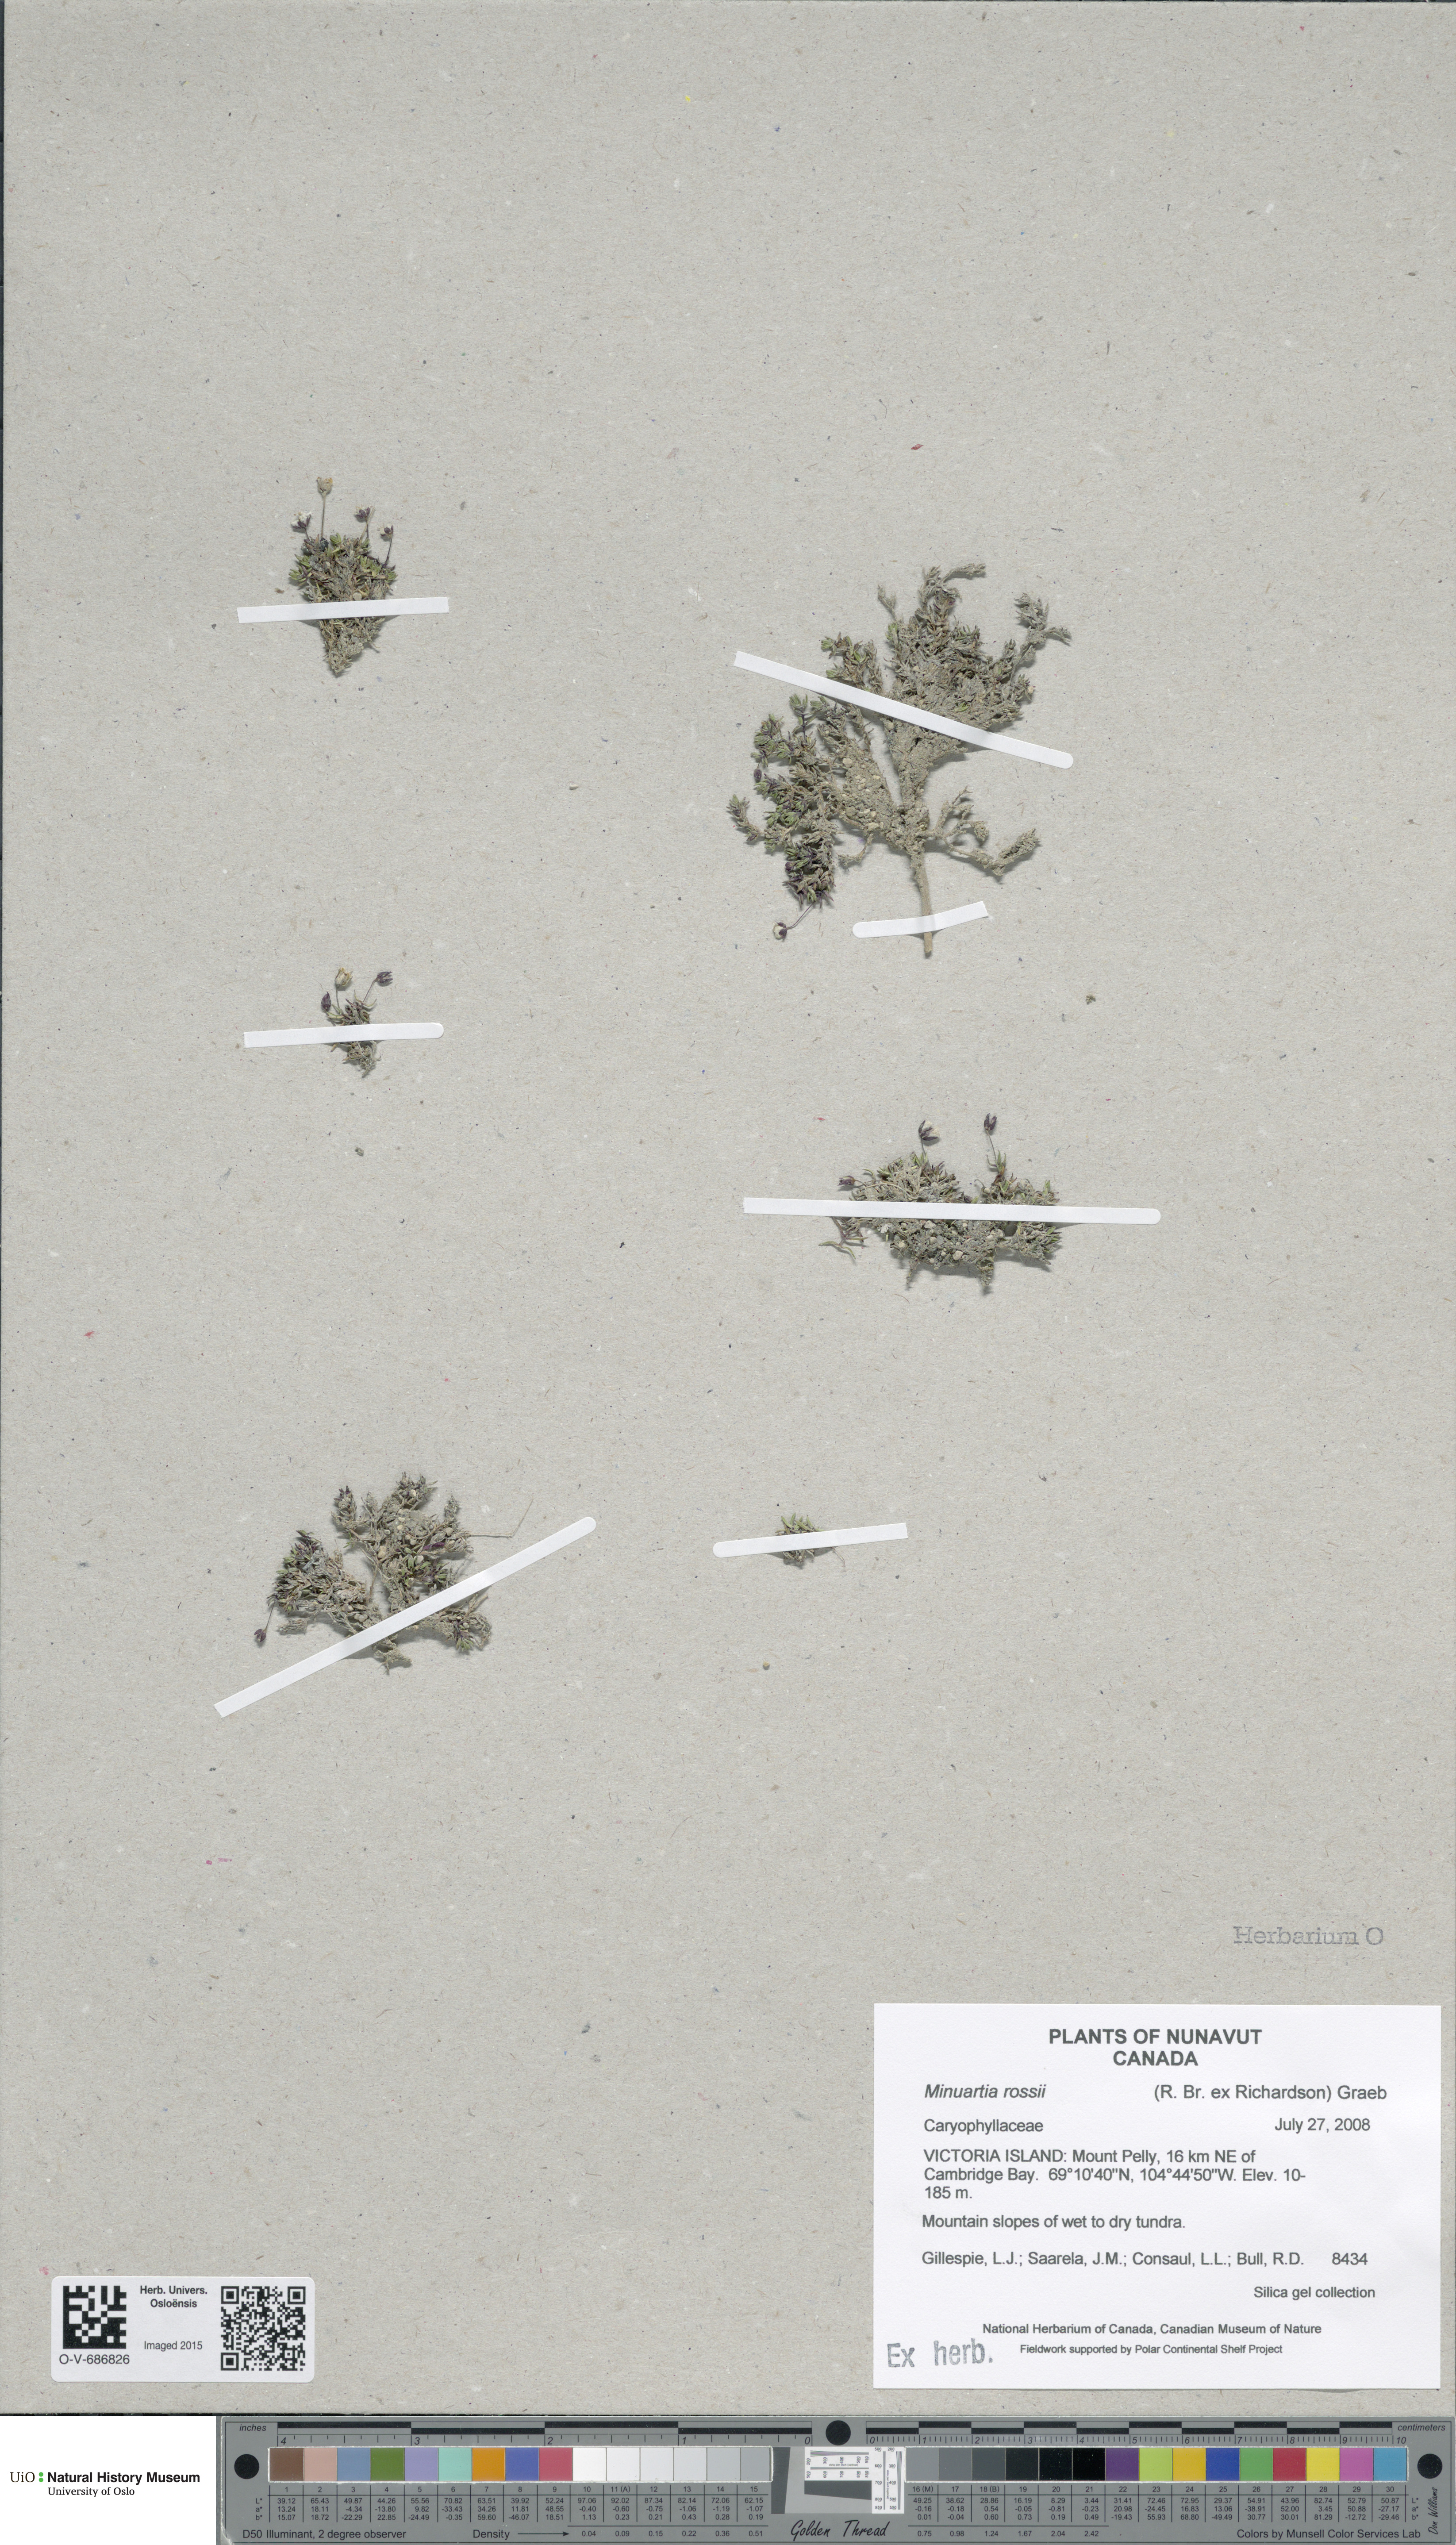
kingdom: Plantae
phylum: Tracheophyta
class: Magnoliopsida
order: Caryophyllales
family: Caryophyllaceae
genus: Sabulina
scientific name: Sabulina rosei
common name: Ross' sandwort
